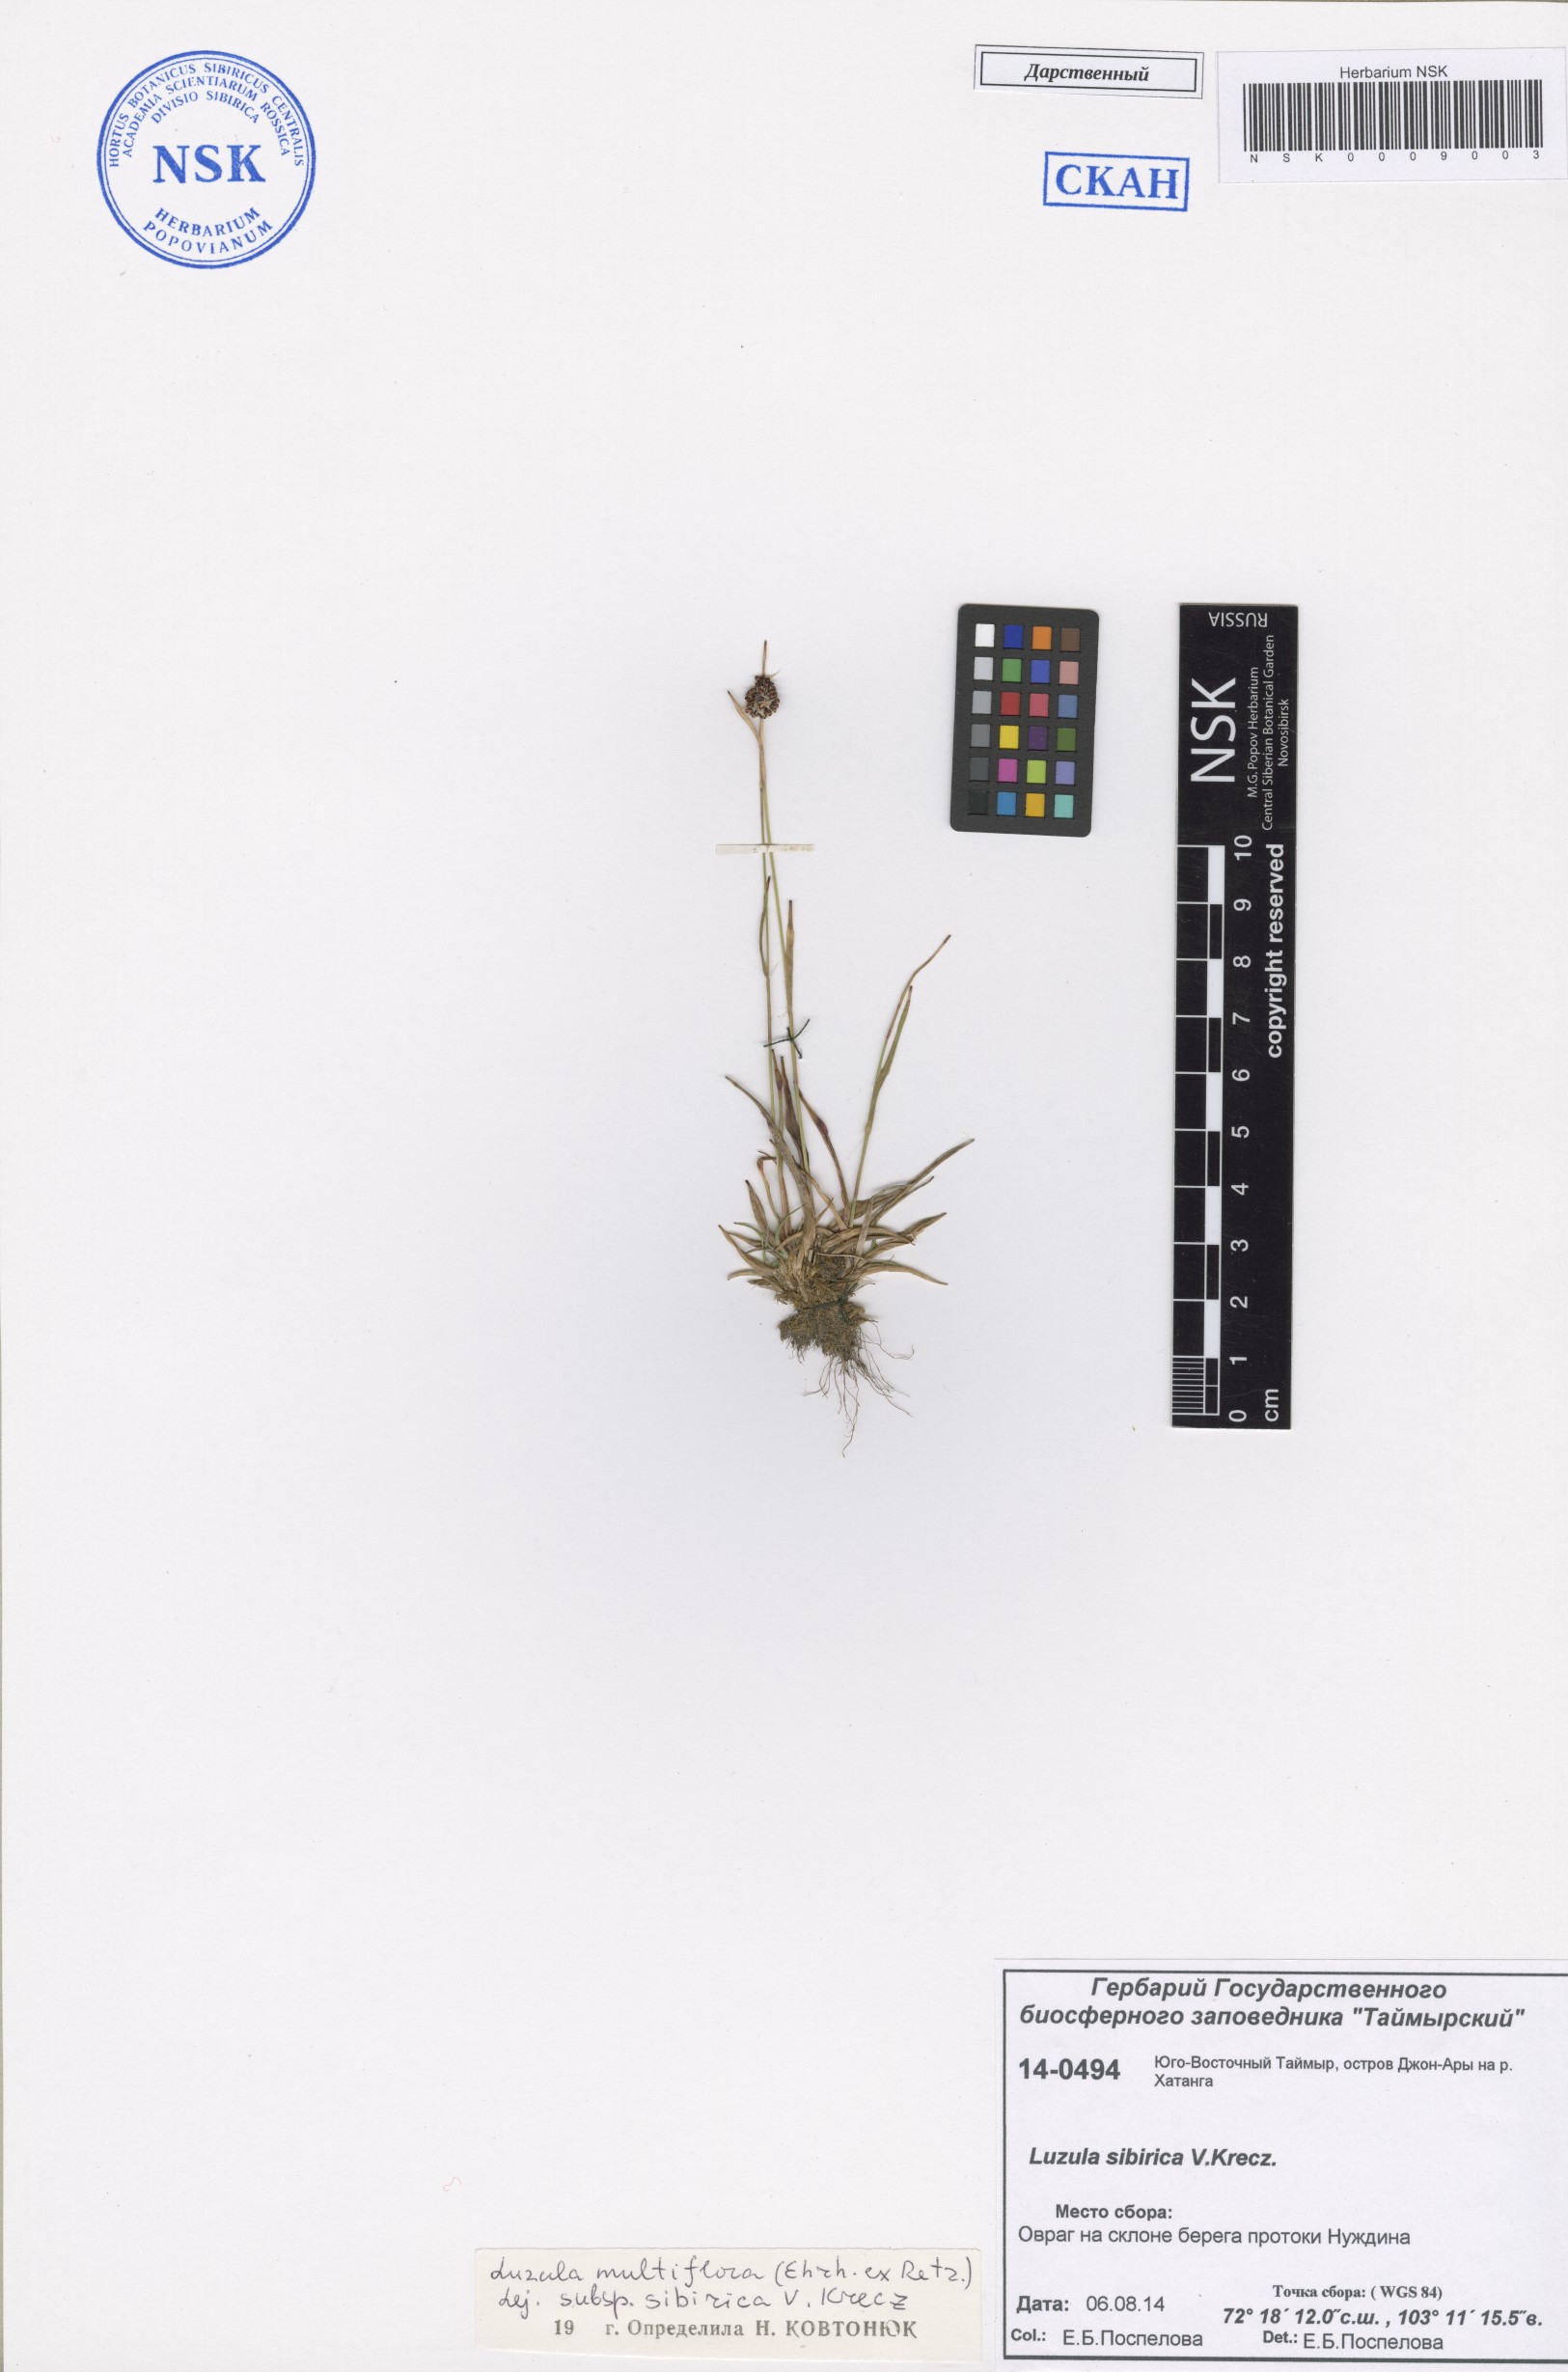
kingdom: Plantae
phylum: Tracheophyta
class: Liliopsida
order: Poales
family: Juncaceae
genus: Luzula
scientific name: Luzula multiflora
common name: Heath wood-rush
